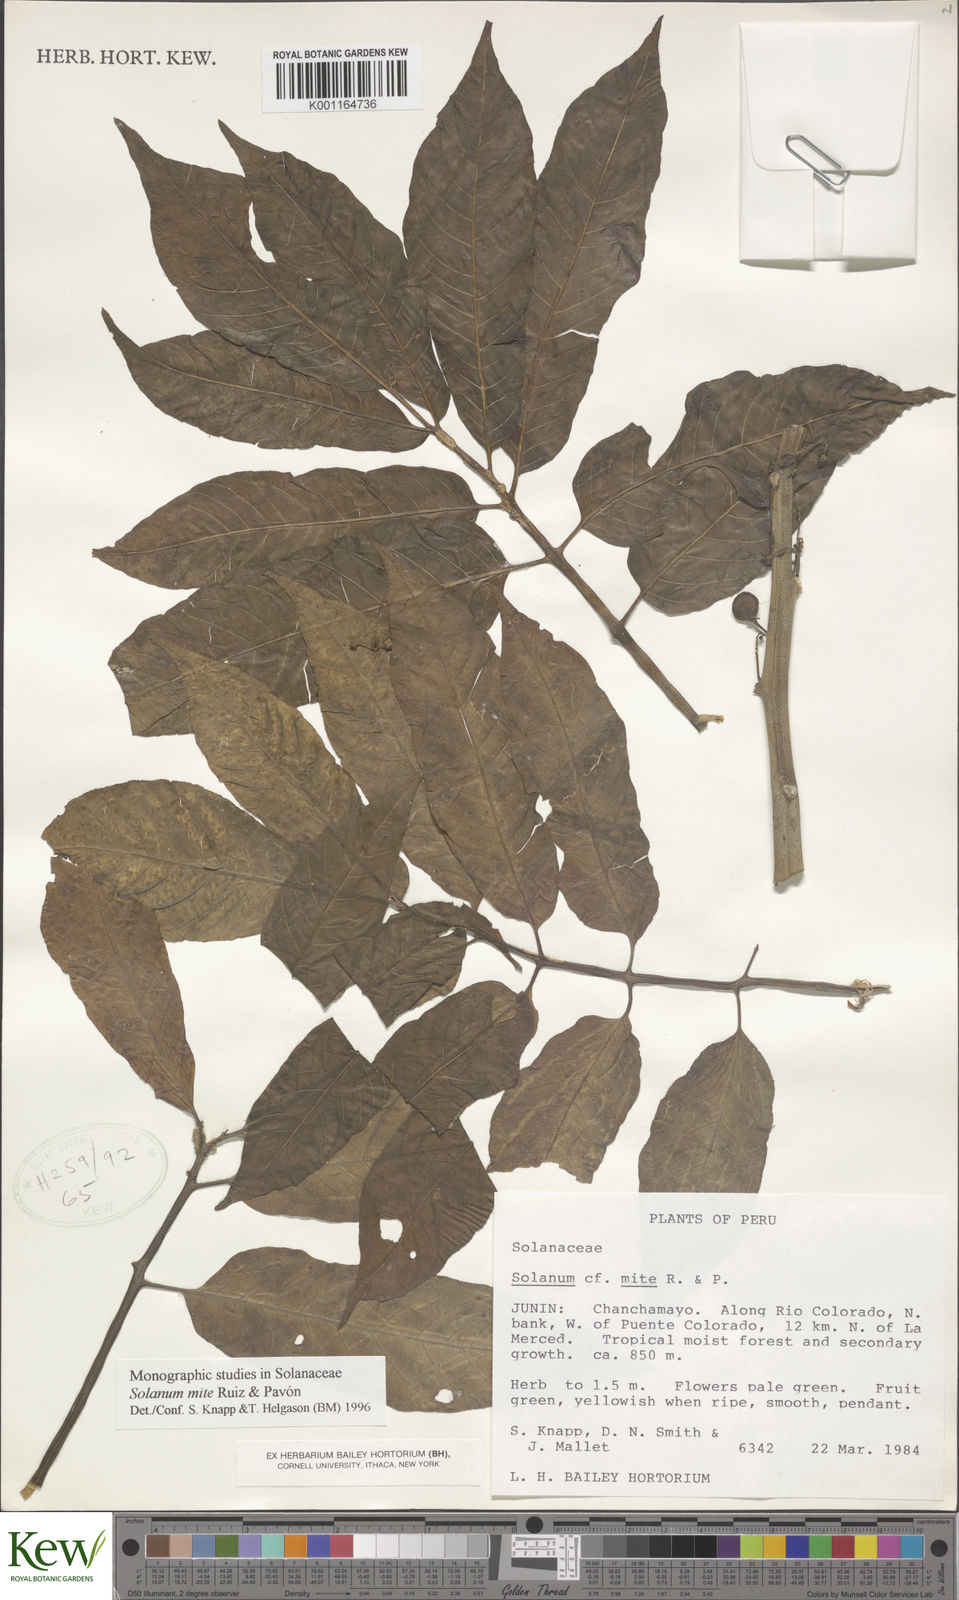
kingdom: Plantae
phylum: Tracheophyta
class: Magnoliopsida
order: Solanales
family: Solanaceae
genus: Solanum
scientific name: Solanum mite
